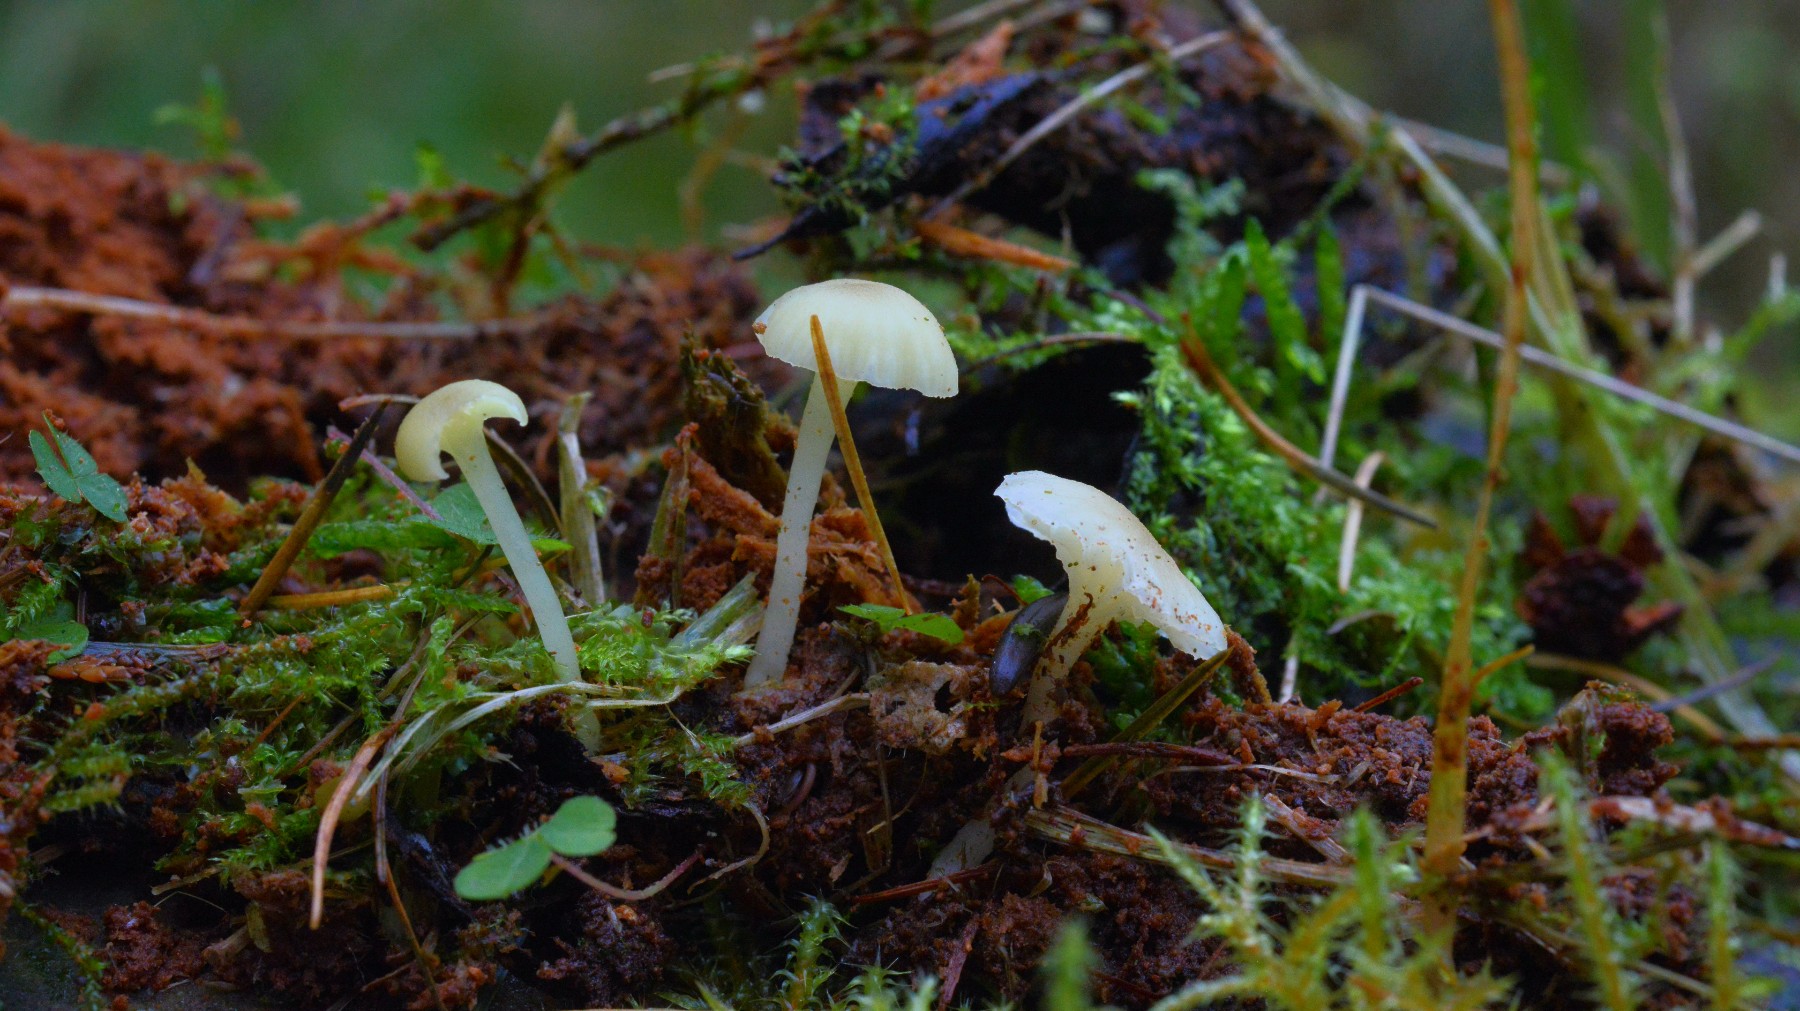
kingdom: Fungi
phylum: Basidiomycota
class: Agaricomycetes
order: Agaricales
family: Hygrophoraceae
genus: Chrysomphalina
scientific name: Chrysomphalina grossula
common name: stød-gyldenblad
